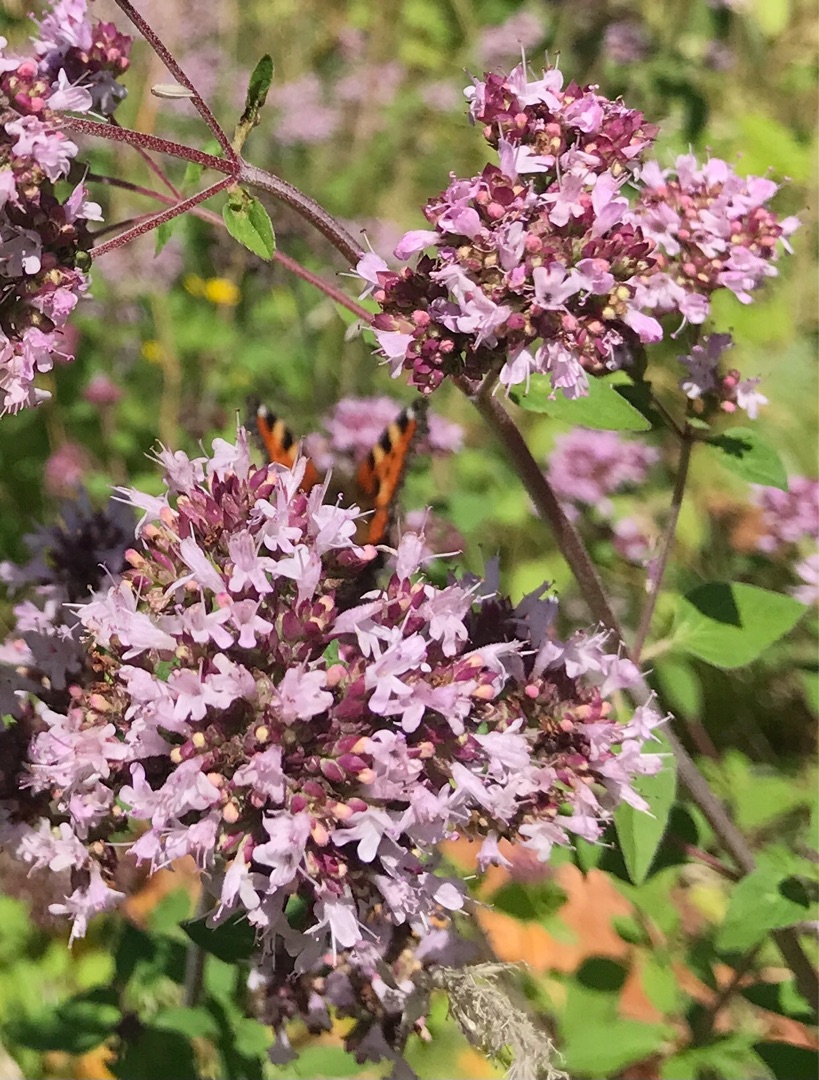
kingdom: Animalia
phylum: Arthropoda
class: Insecta
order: Lepidoptera
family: Nymphalidae
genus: Aglais
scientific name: Aglais urticae
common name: Nældens takvinge
